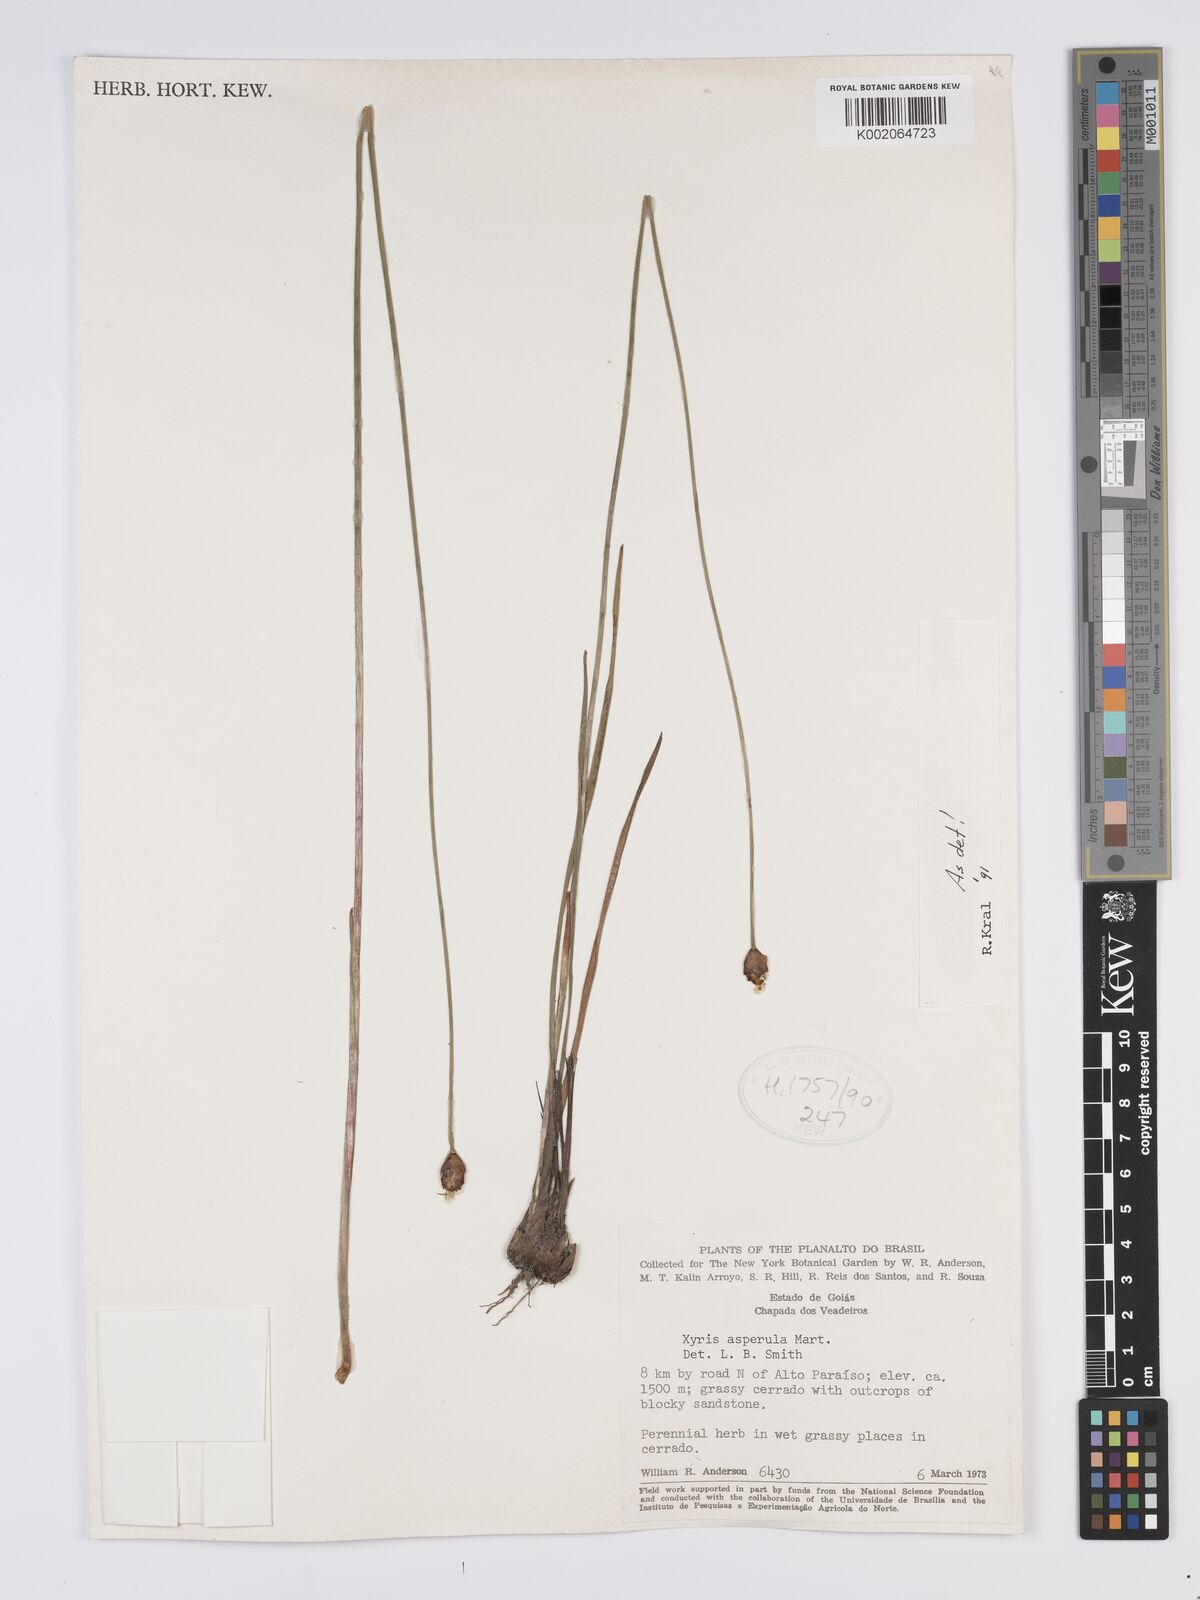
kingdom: Plantae
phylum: Tracheophyta
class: Liliopsida
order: Poales
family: Xyridaceae
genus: Xyris
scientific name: Xyris asperula
